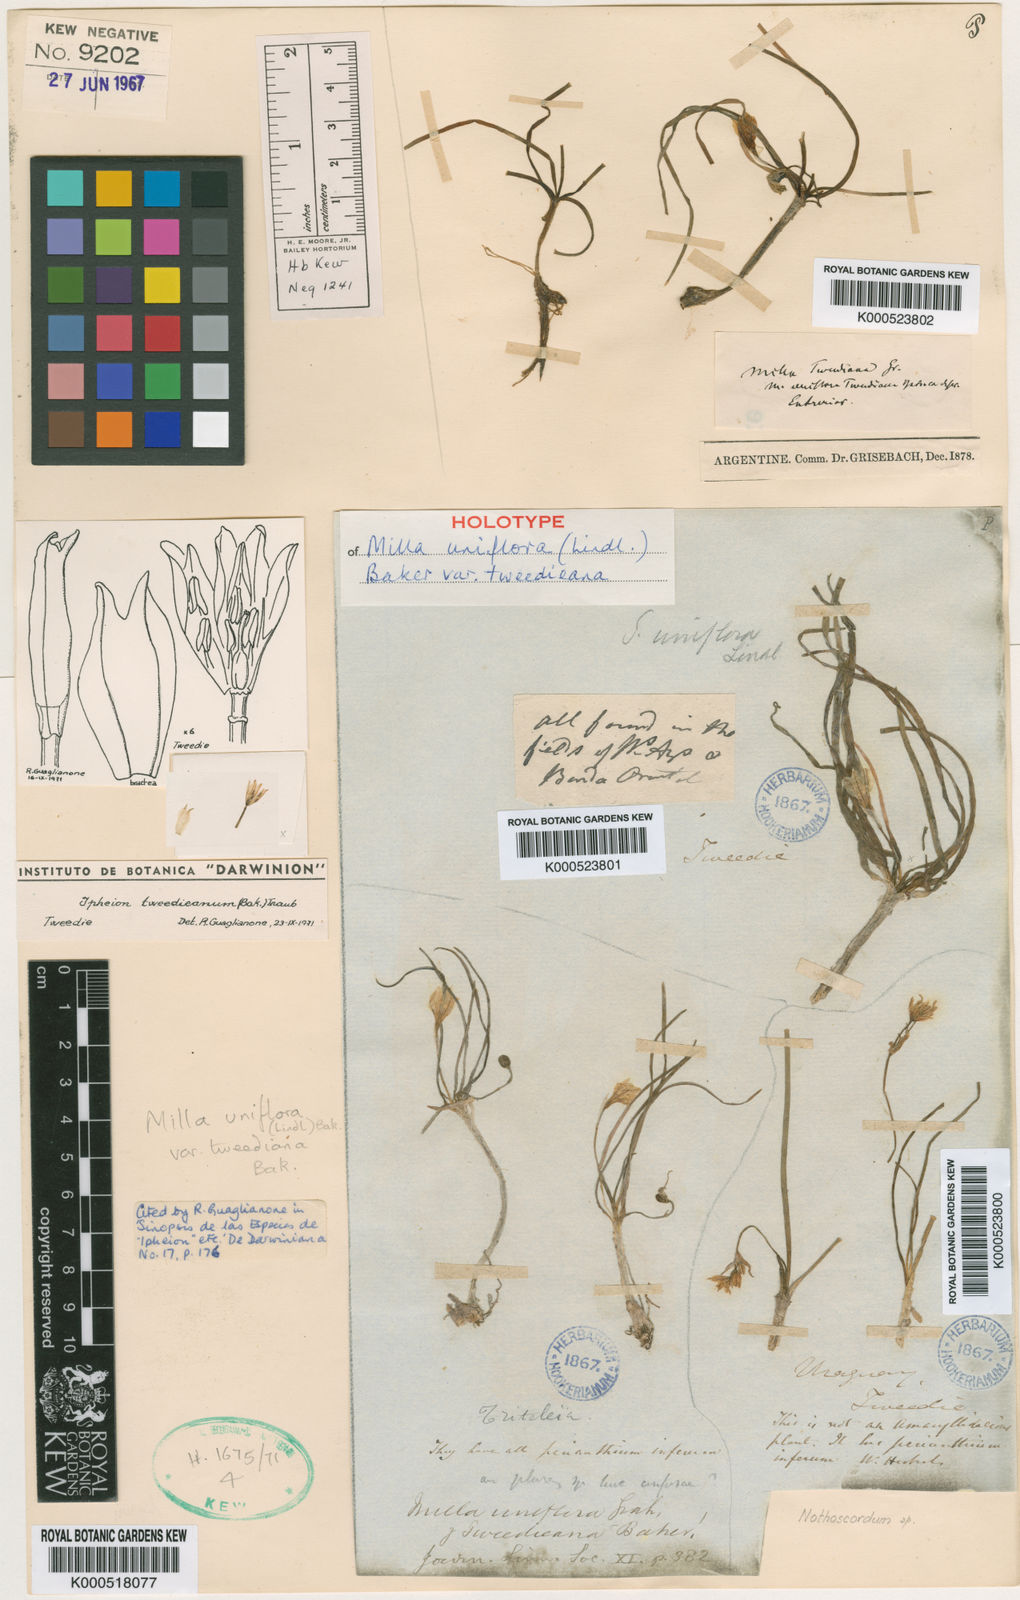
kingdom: Plantae
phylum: Tracheophyta
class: Liliopsida
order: Asparagales
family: Amaryllidaceae
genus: Ipheion
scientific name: Ipheion
